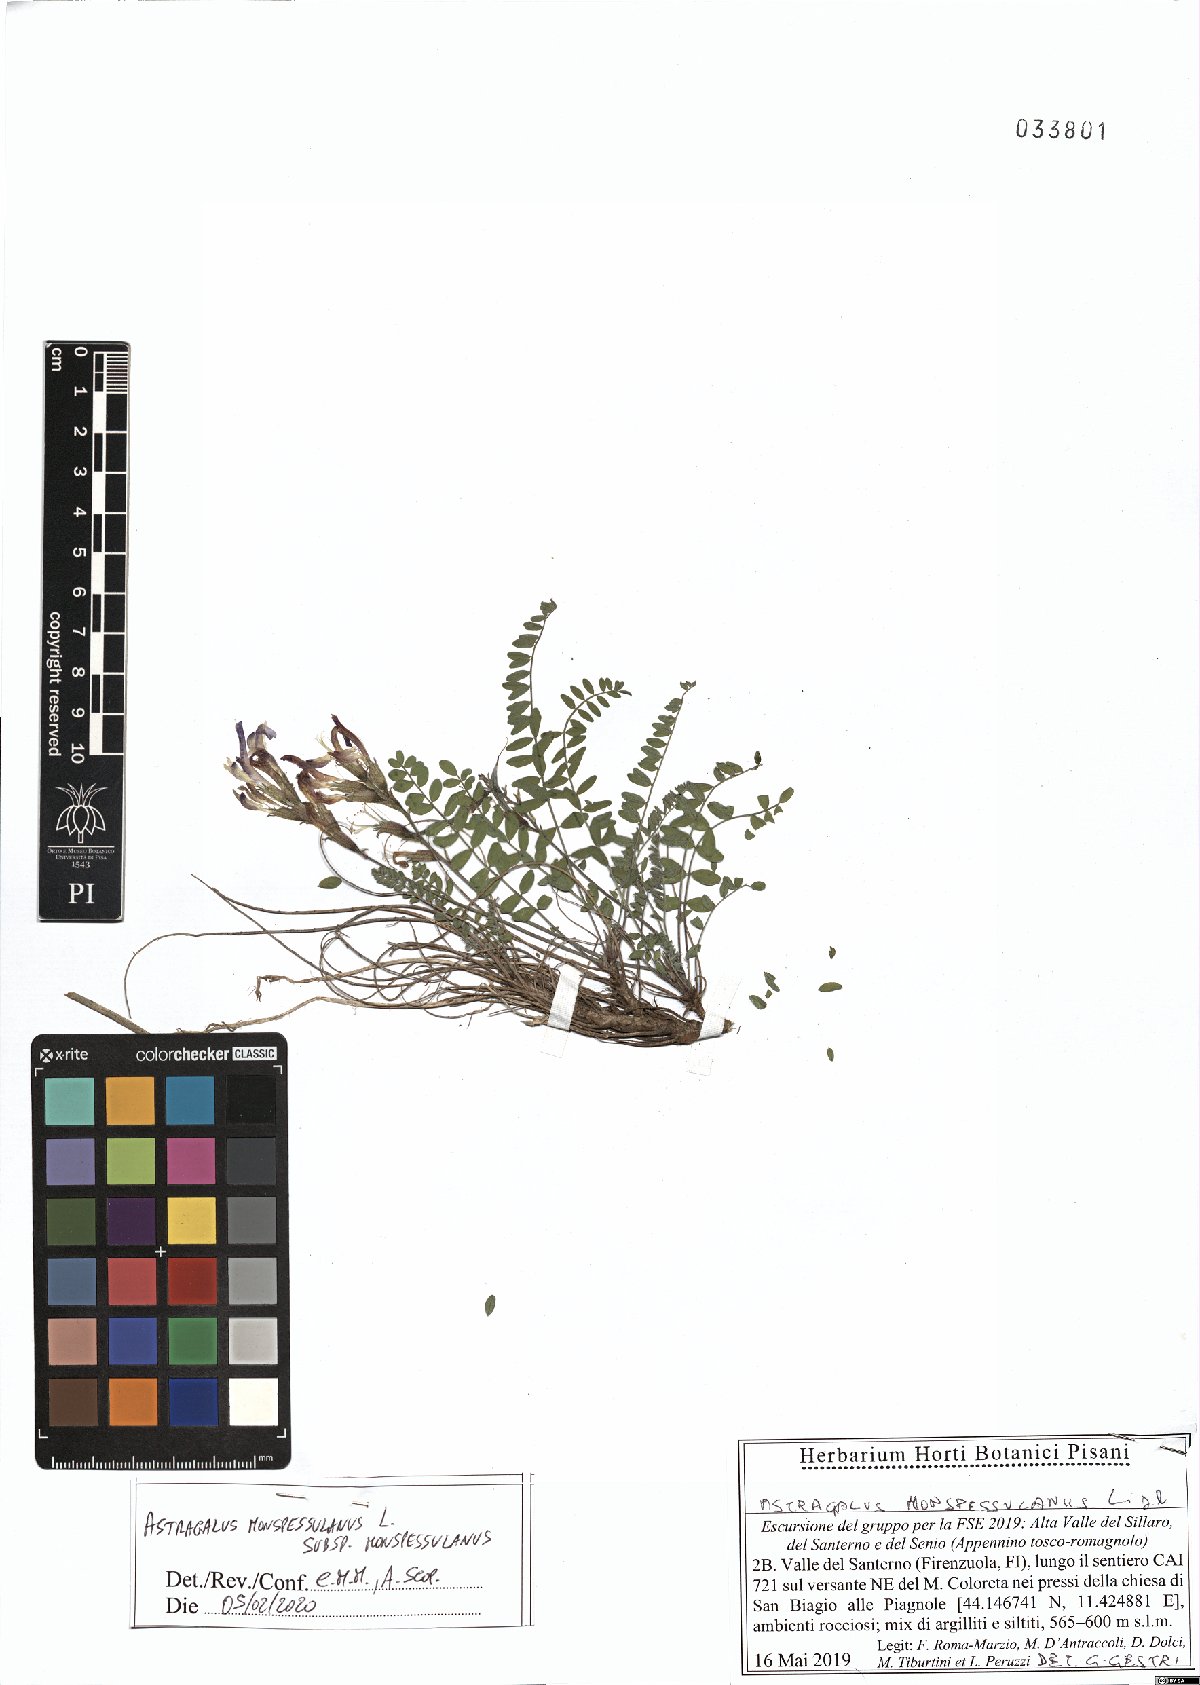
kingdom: Plantae
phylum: Tracheophyta
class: Magnoliopsida
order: Fabales
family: Fabaceae
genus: Astragalus
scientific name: Astragalus monspessulanus
